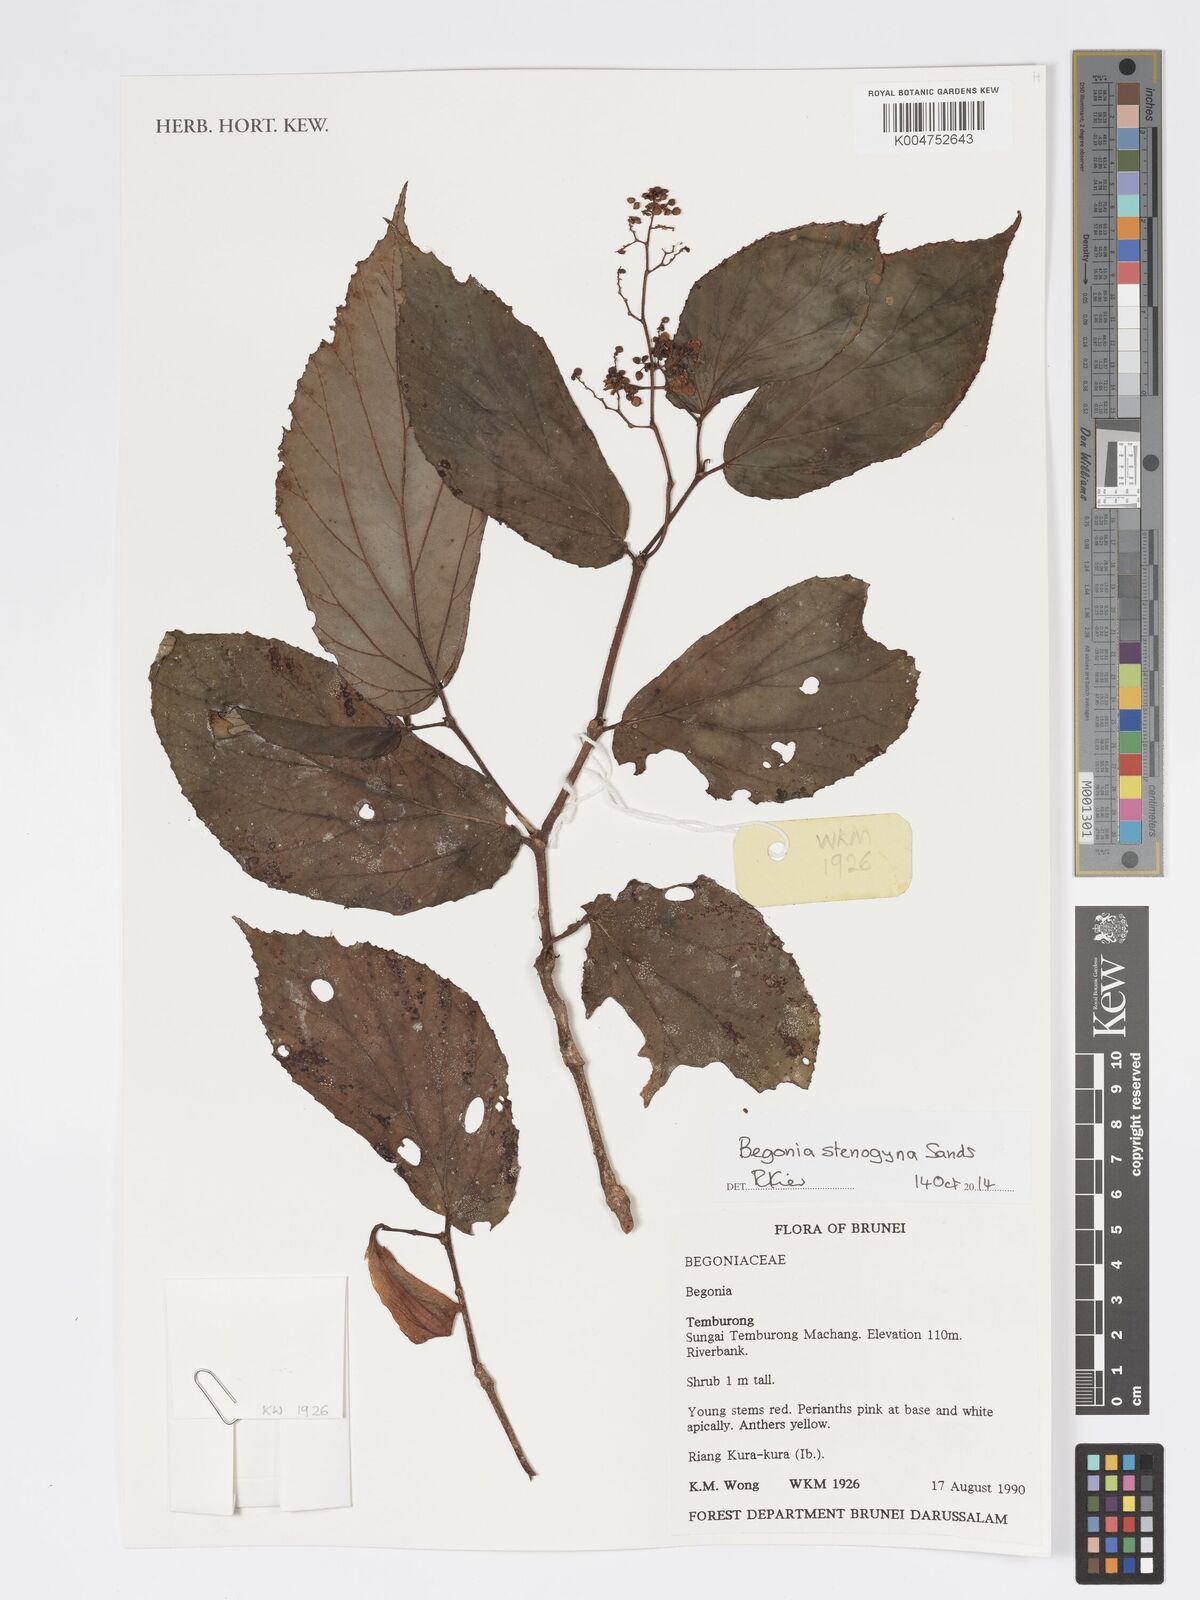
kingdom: Plantae
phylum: Tracheophyta
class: Magnoliopsida
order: Cucurbitales
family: Begoniaceae
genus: Begonia
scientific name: Begonia stenogyna
